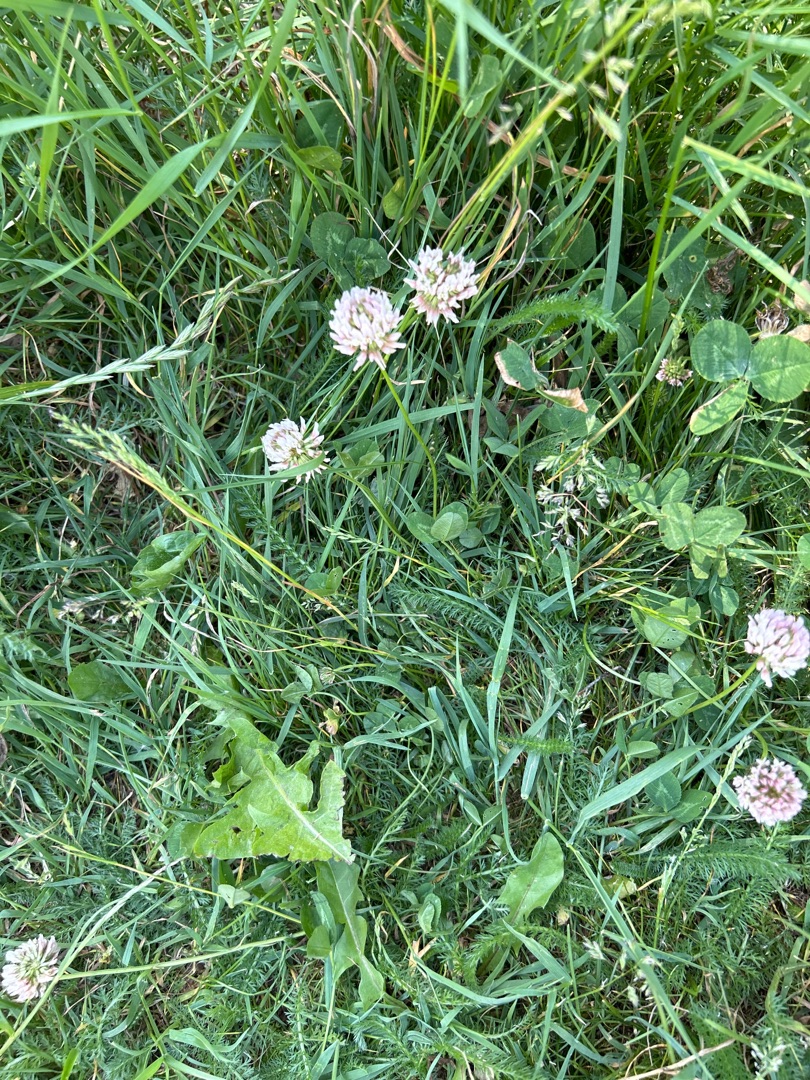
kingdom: Plantae
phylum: Tracheophyta
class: Magnoliopsida
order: Fabales
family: Fabaceae
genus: Trifolium
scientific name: Trifolium repens
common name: Hvid-kløver
